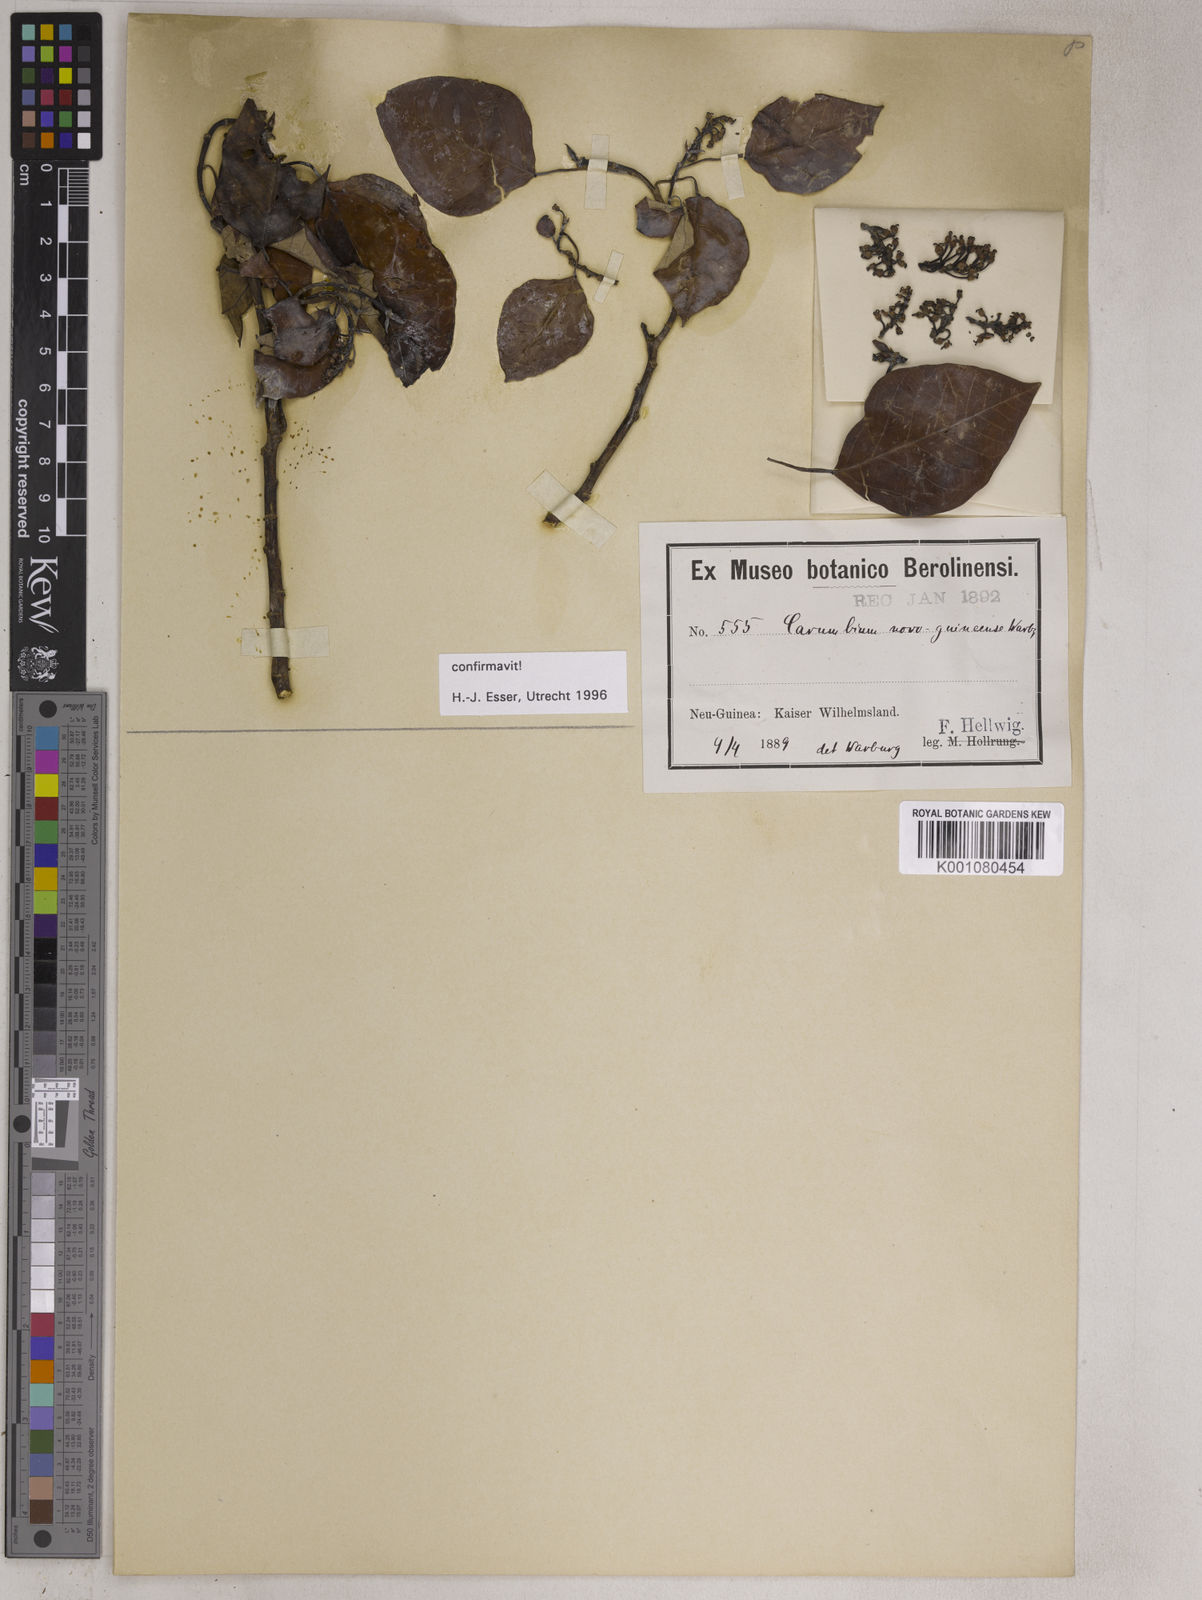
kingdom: Plantae
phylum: Tracheophyta
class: Magnoliopsida
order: Malpighiales
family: Euphorbiaceae
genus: Homalanthus
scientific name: Homalanthus novoguineensis
